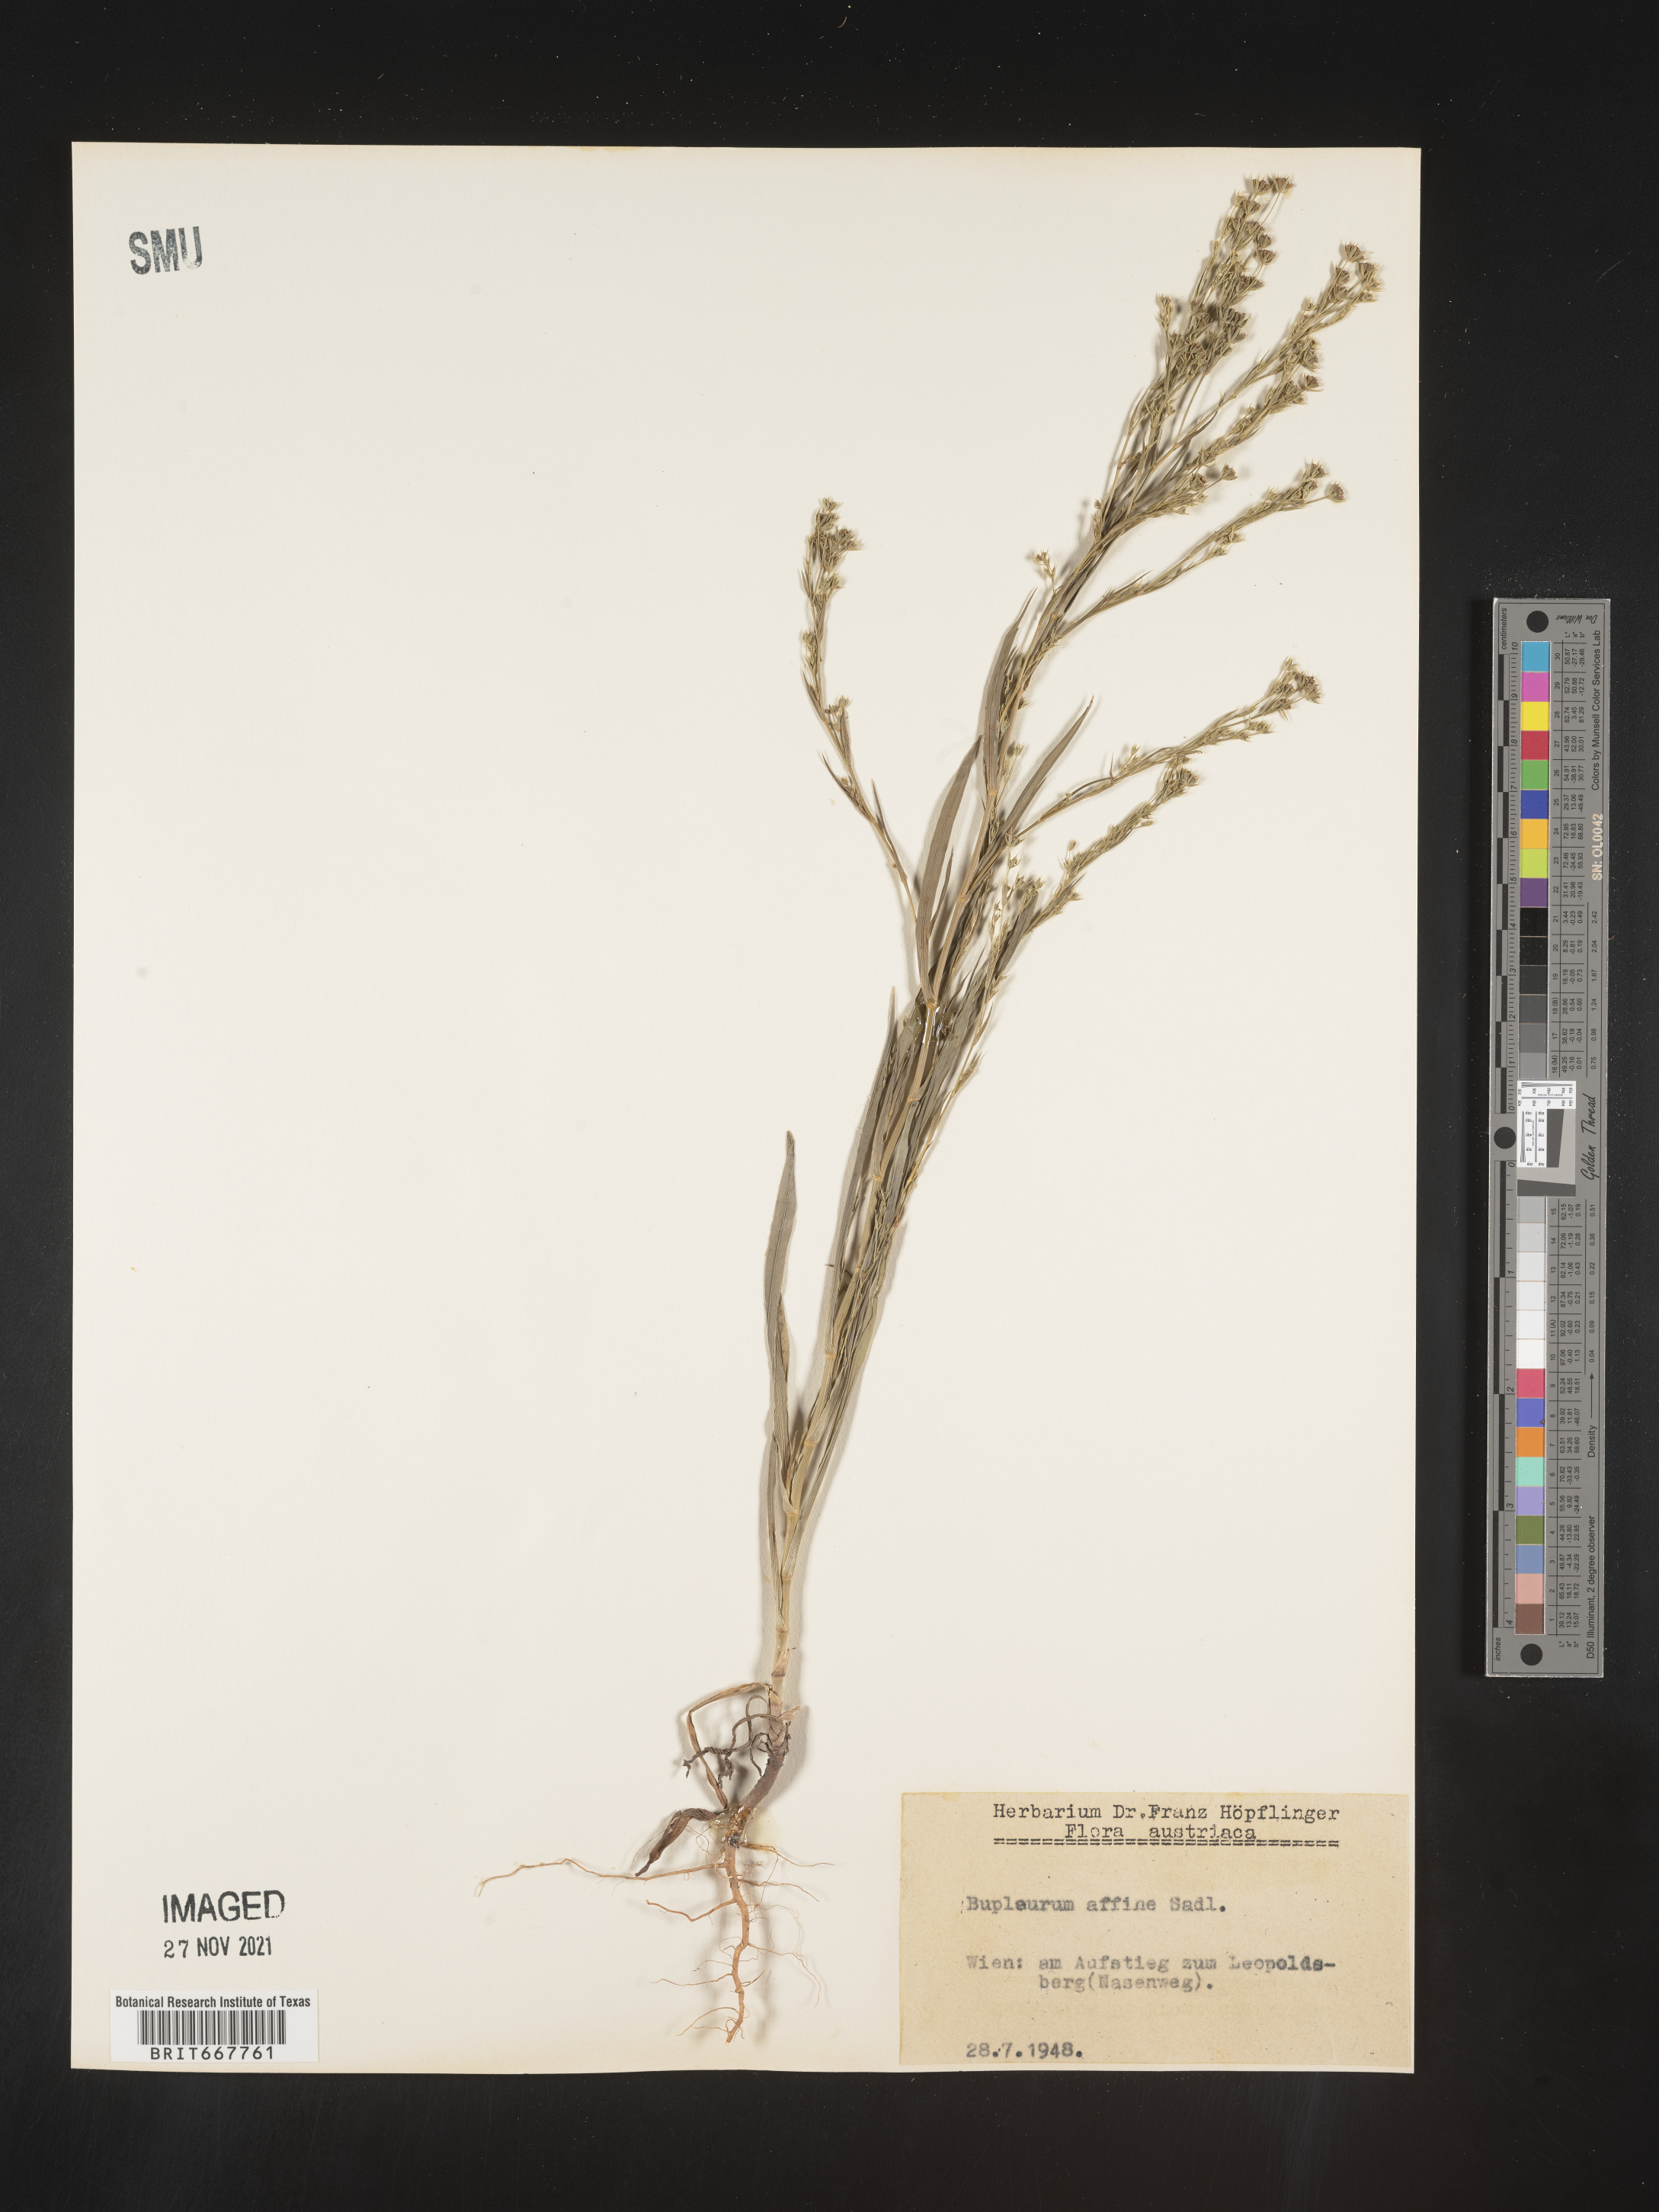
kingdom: Plantae
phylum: Tracheophyta
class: Magnoliopsida
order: Apiales
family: Apiaceae
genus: Bupleurum
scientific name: Bupleurum
